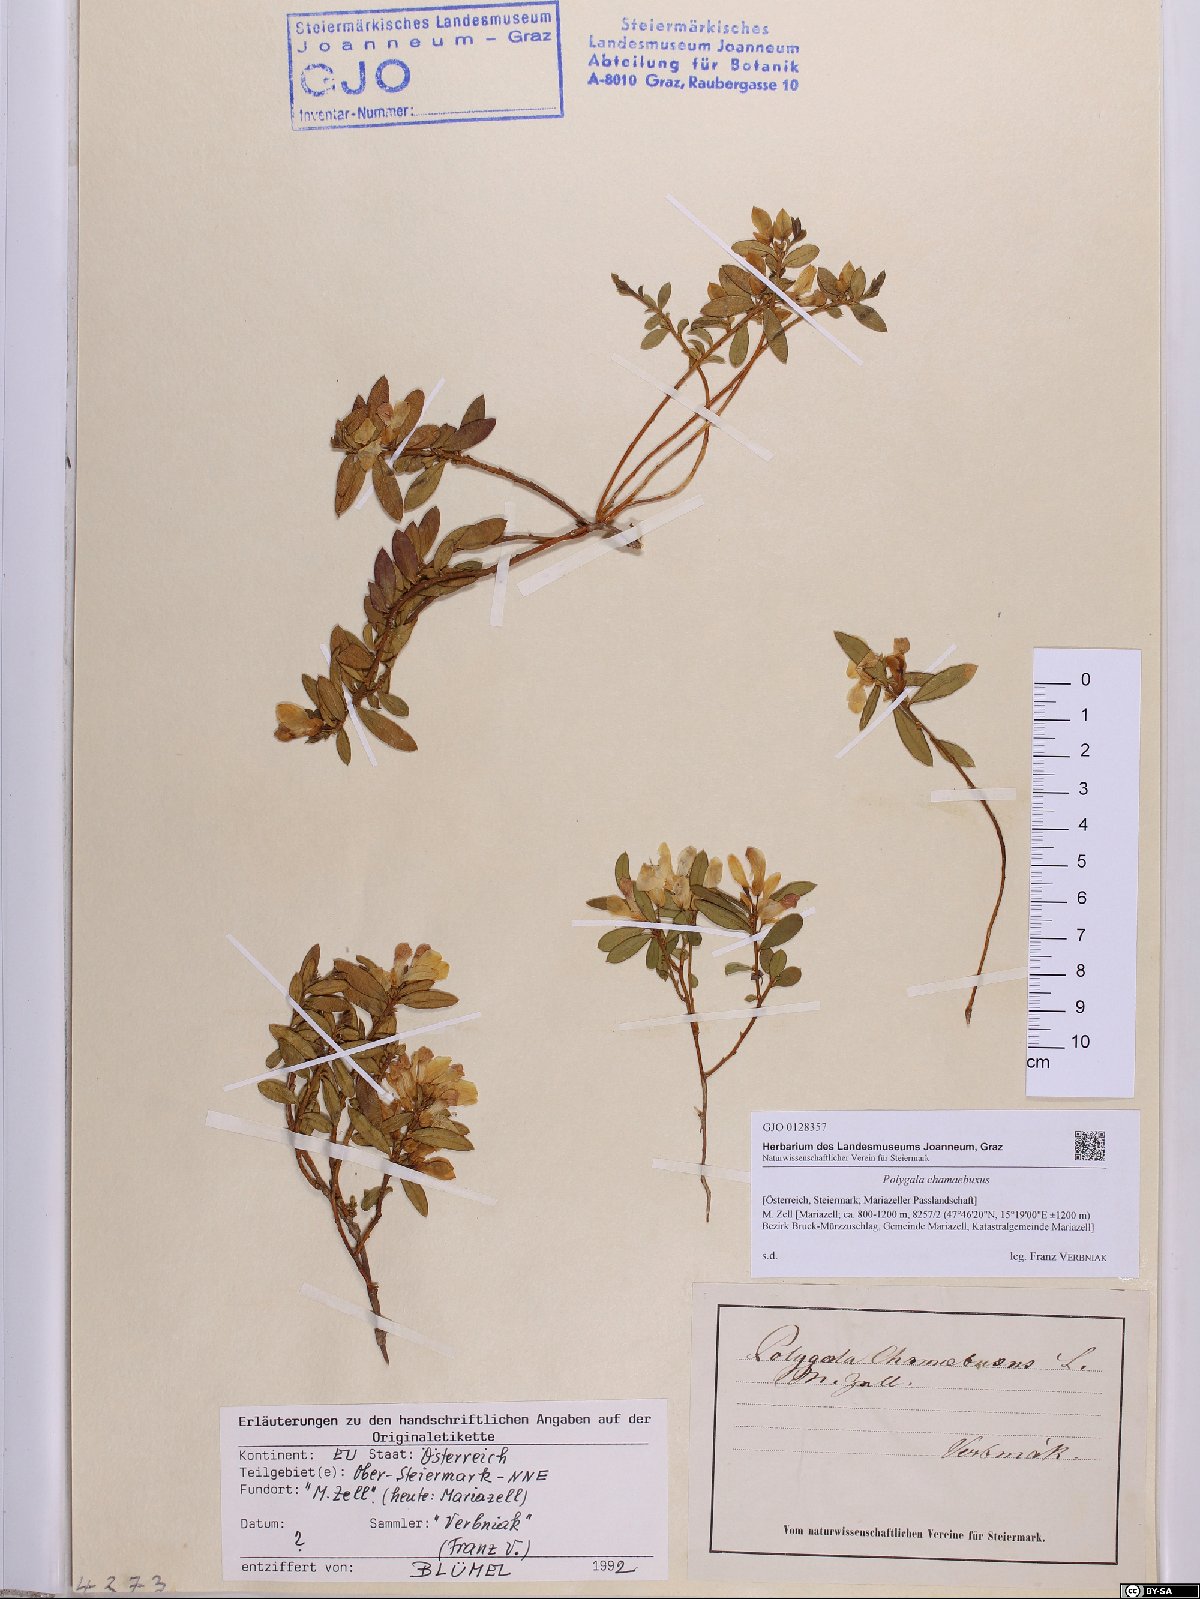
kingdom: Plantae
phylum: Tracheophyta
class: Magnoliopsida
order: Fabales
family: Polygalaceae
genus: Polygaloides
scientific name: Polygaloides chamaebuxus
